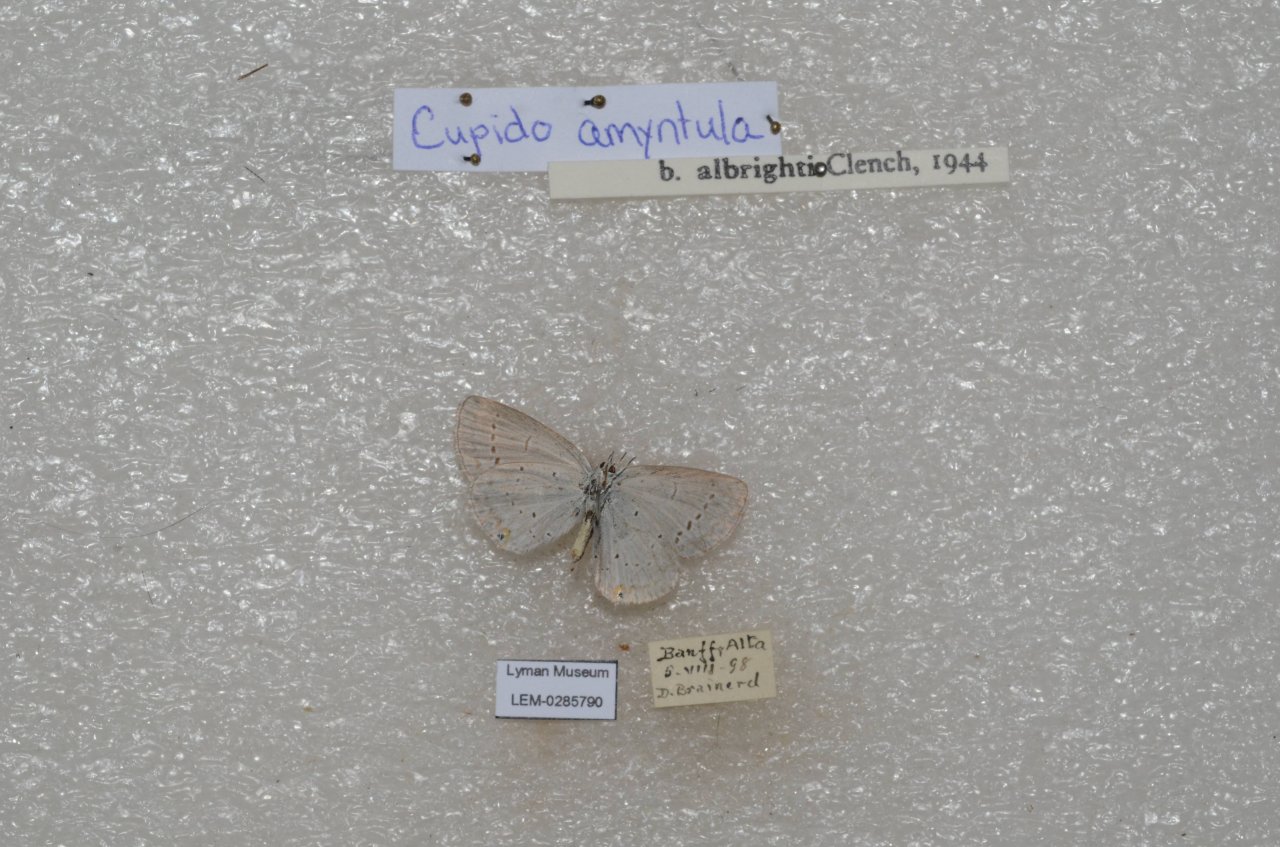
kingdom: Animalia
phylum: Arthropoda
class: Insecta
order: Lepidoptera
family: Lycaenidae
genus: Elkalyce
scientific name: Elkalyce amyntula
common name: Western Tailed-Blue
